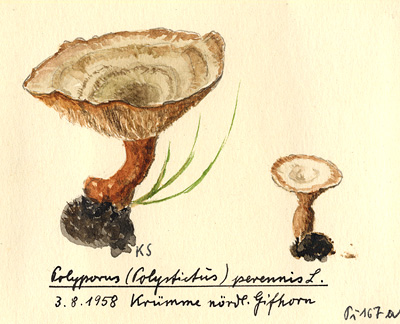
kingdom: Fungi
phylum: Basidiomycota
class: Agaricomycetes
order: Hymenochaetales
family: Hymenochaetaceae
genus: Coltricia
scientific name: Coltricia perennis
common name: Tiger's eye
